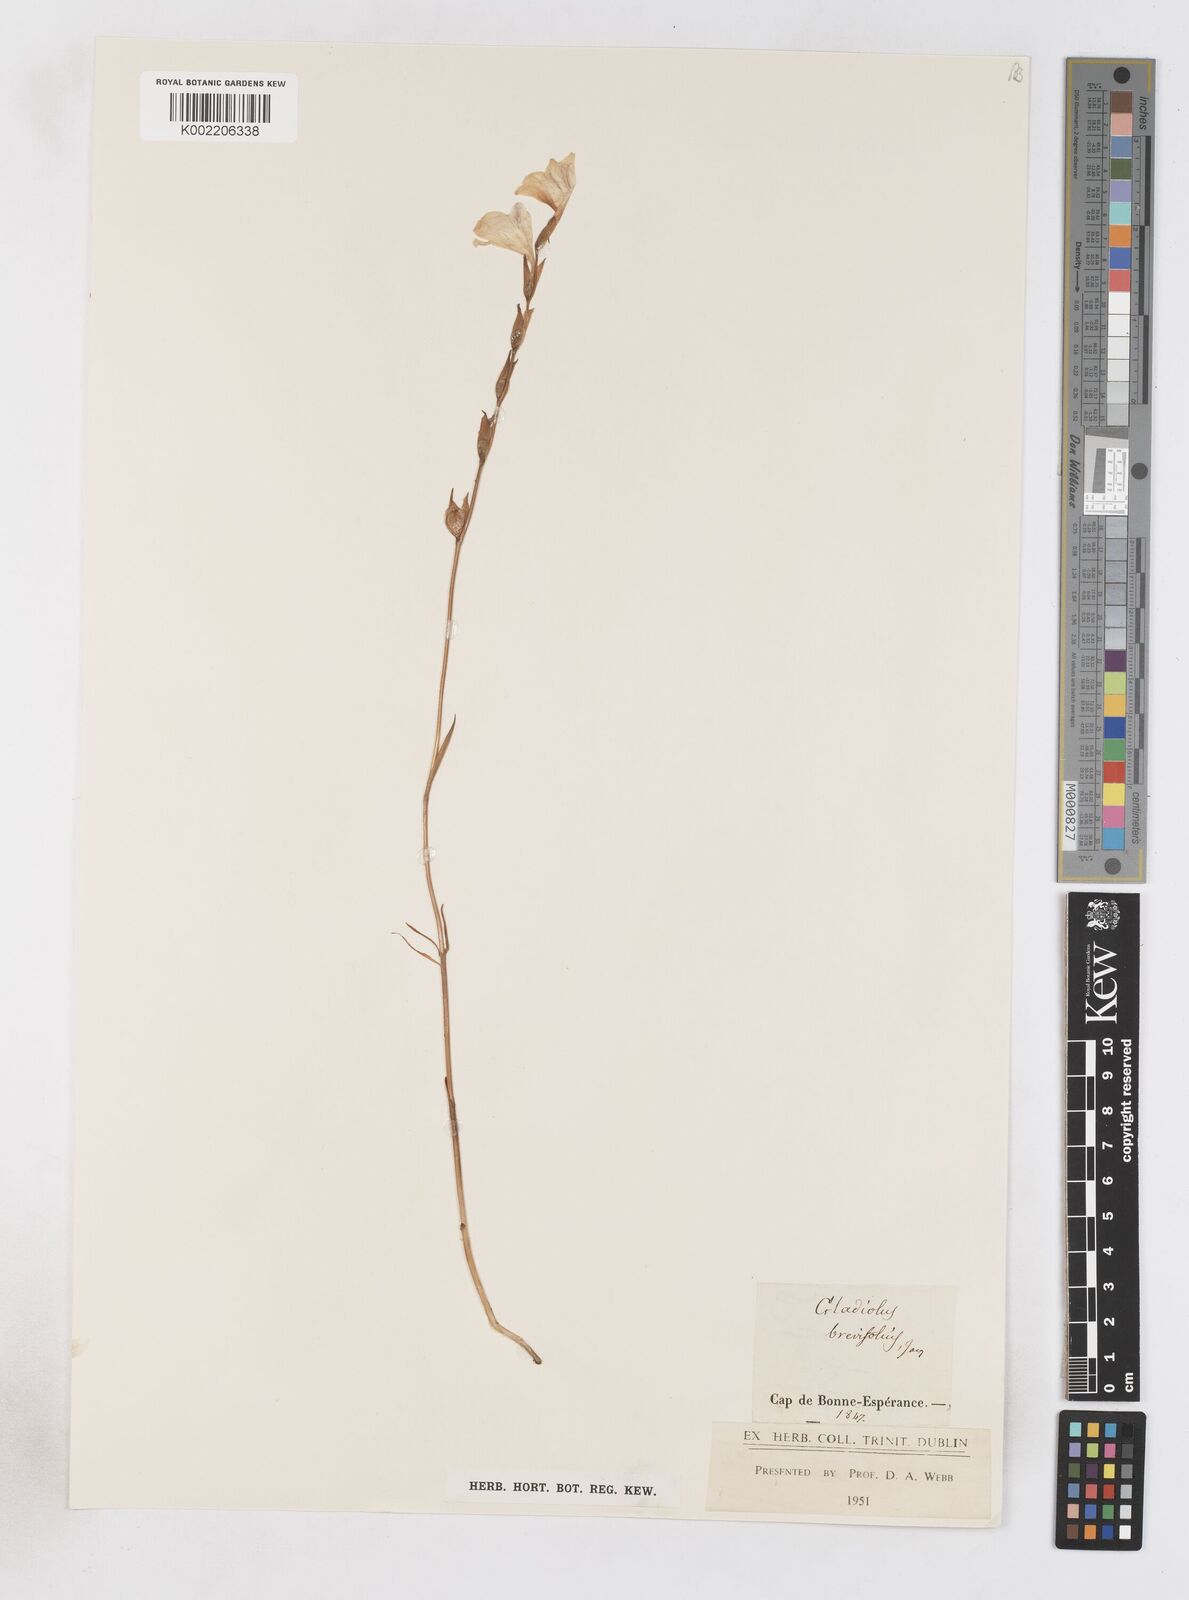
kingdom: Plantae
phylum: Tracheophyta
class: Liliopsida
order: Asparagales
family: Iridaceae
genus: Gladiolus
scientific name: Gladiolus brevifolius
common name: March pypie
